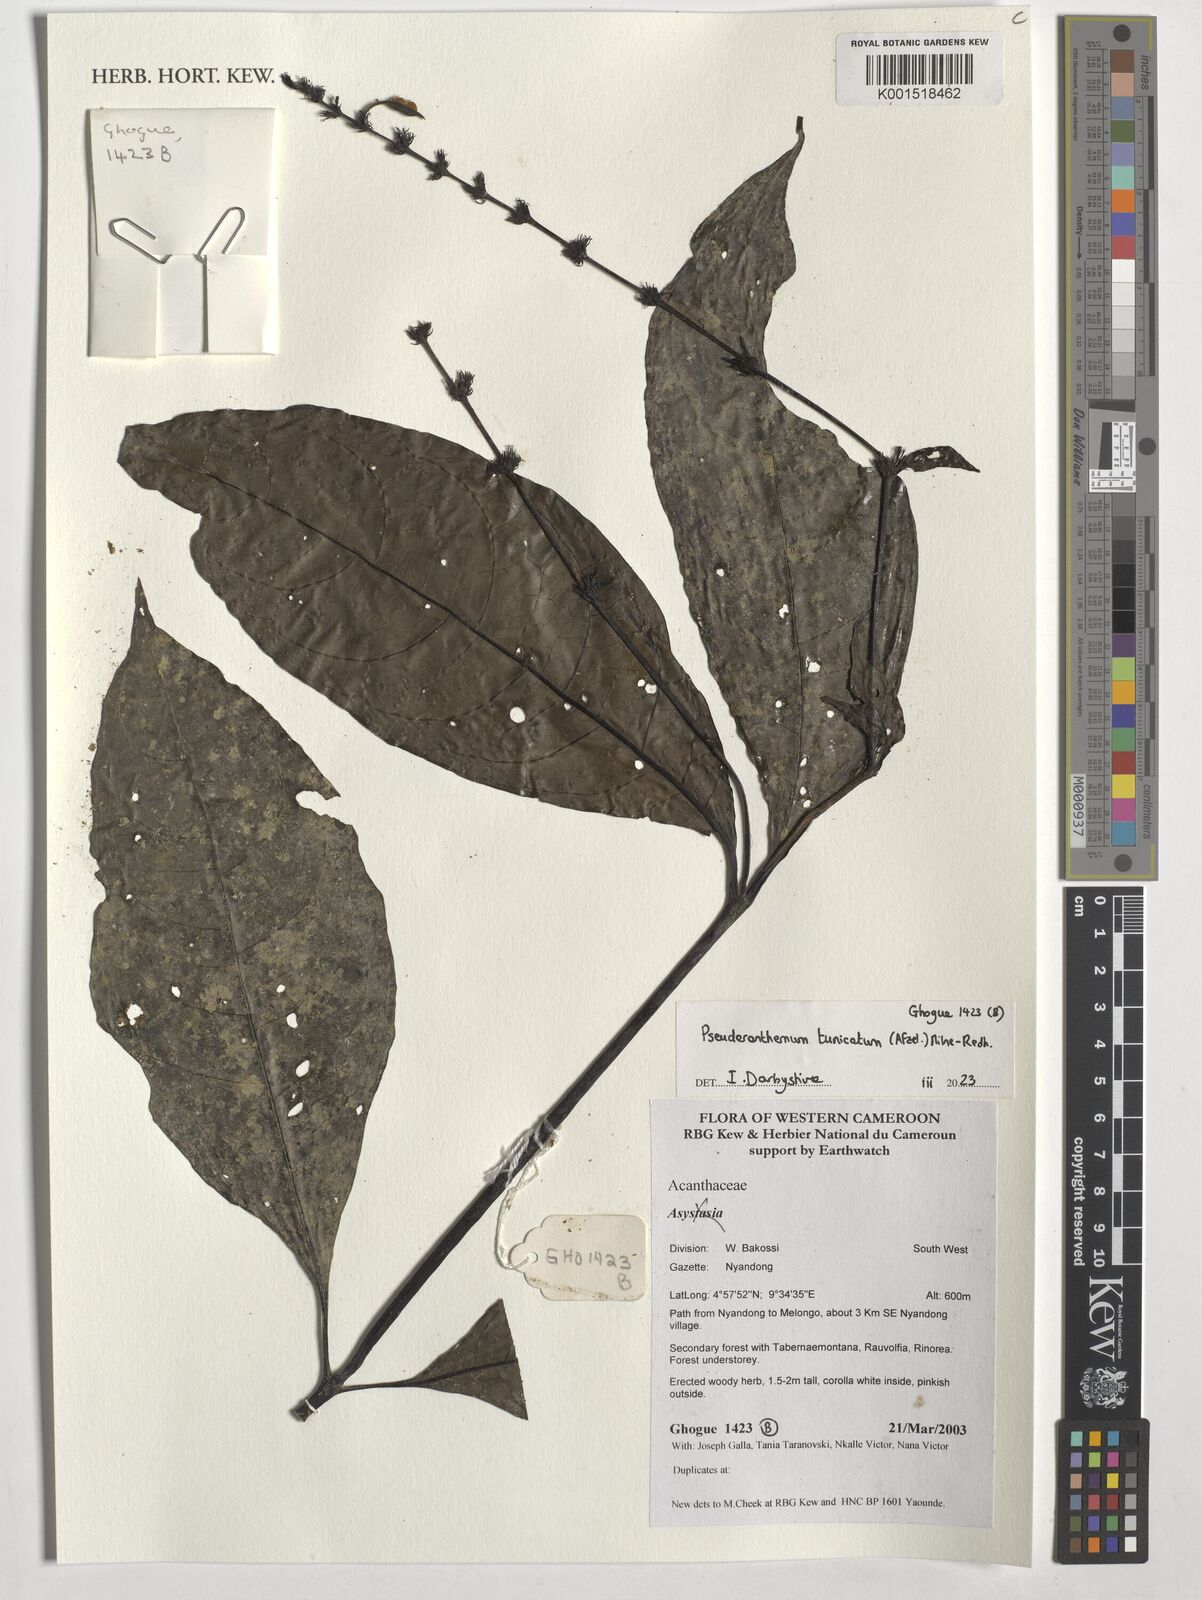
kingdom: Plantae
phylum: Tracheophyta
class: Magnoliopsida
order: Lamiales
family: Acanthaceae
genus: Pseuderanthemum
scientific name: Pseuderanthemum tunicatum
